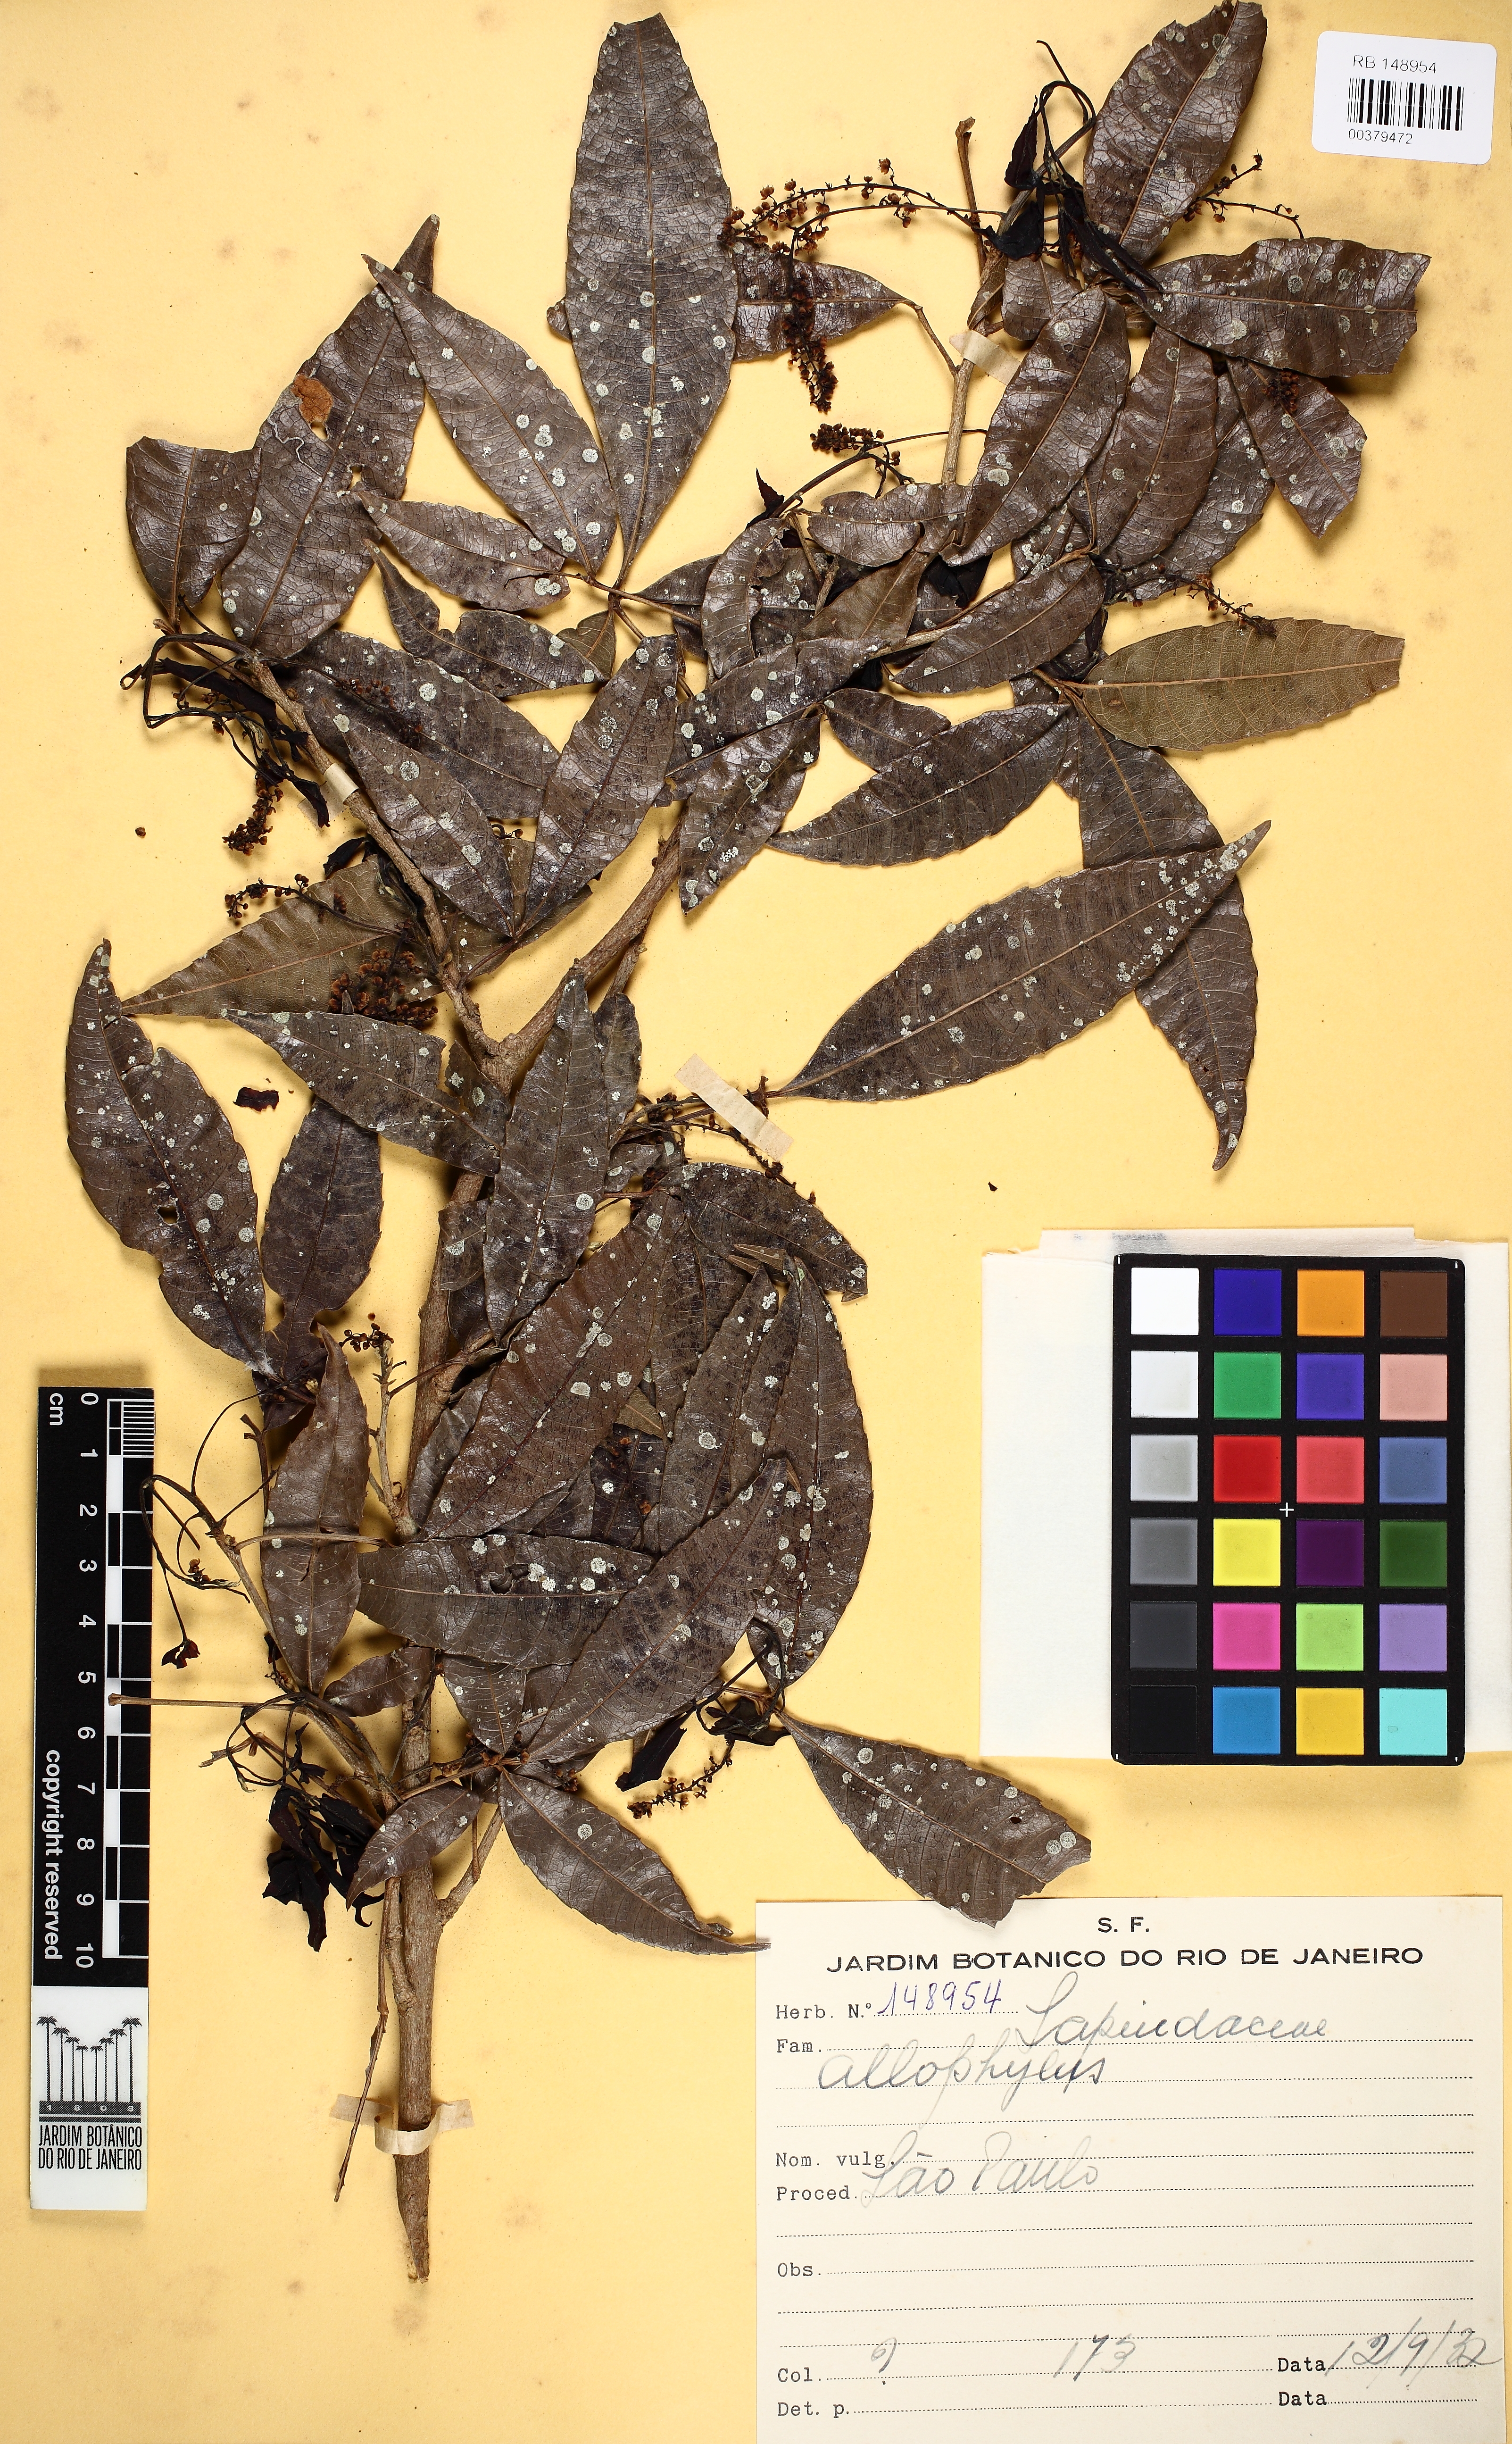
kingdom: Plantae
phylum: Tracheophyta
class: Magnoliopsida
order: Sapindales
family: Sapindaceae
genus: Allophylus
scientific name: Allophylus edulis
